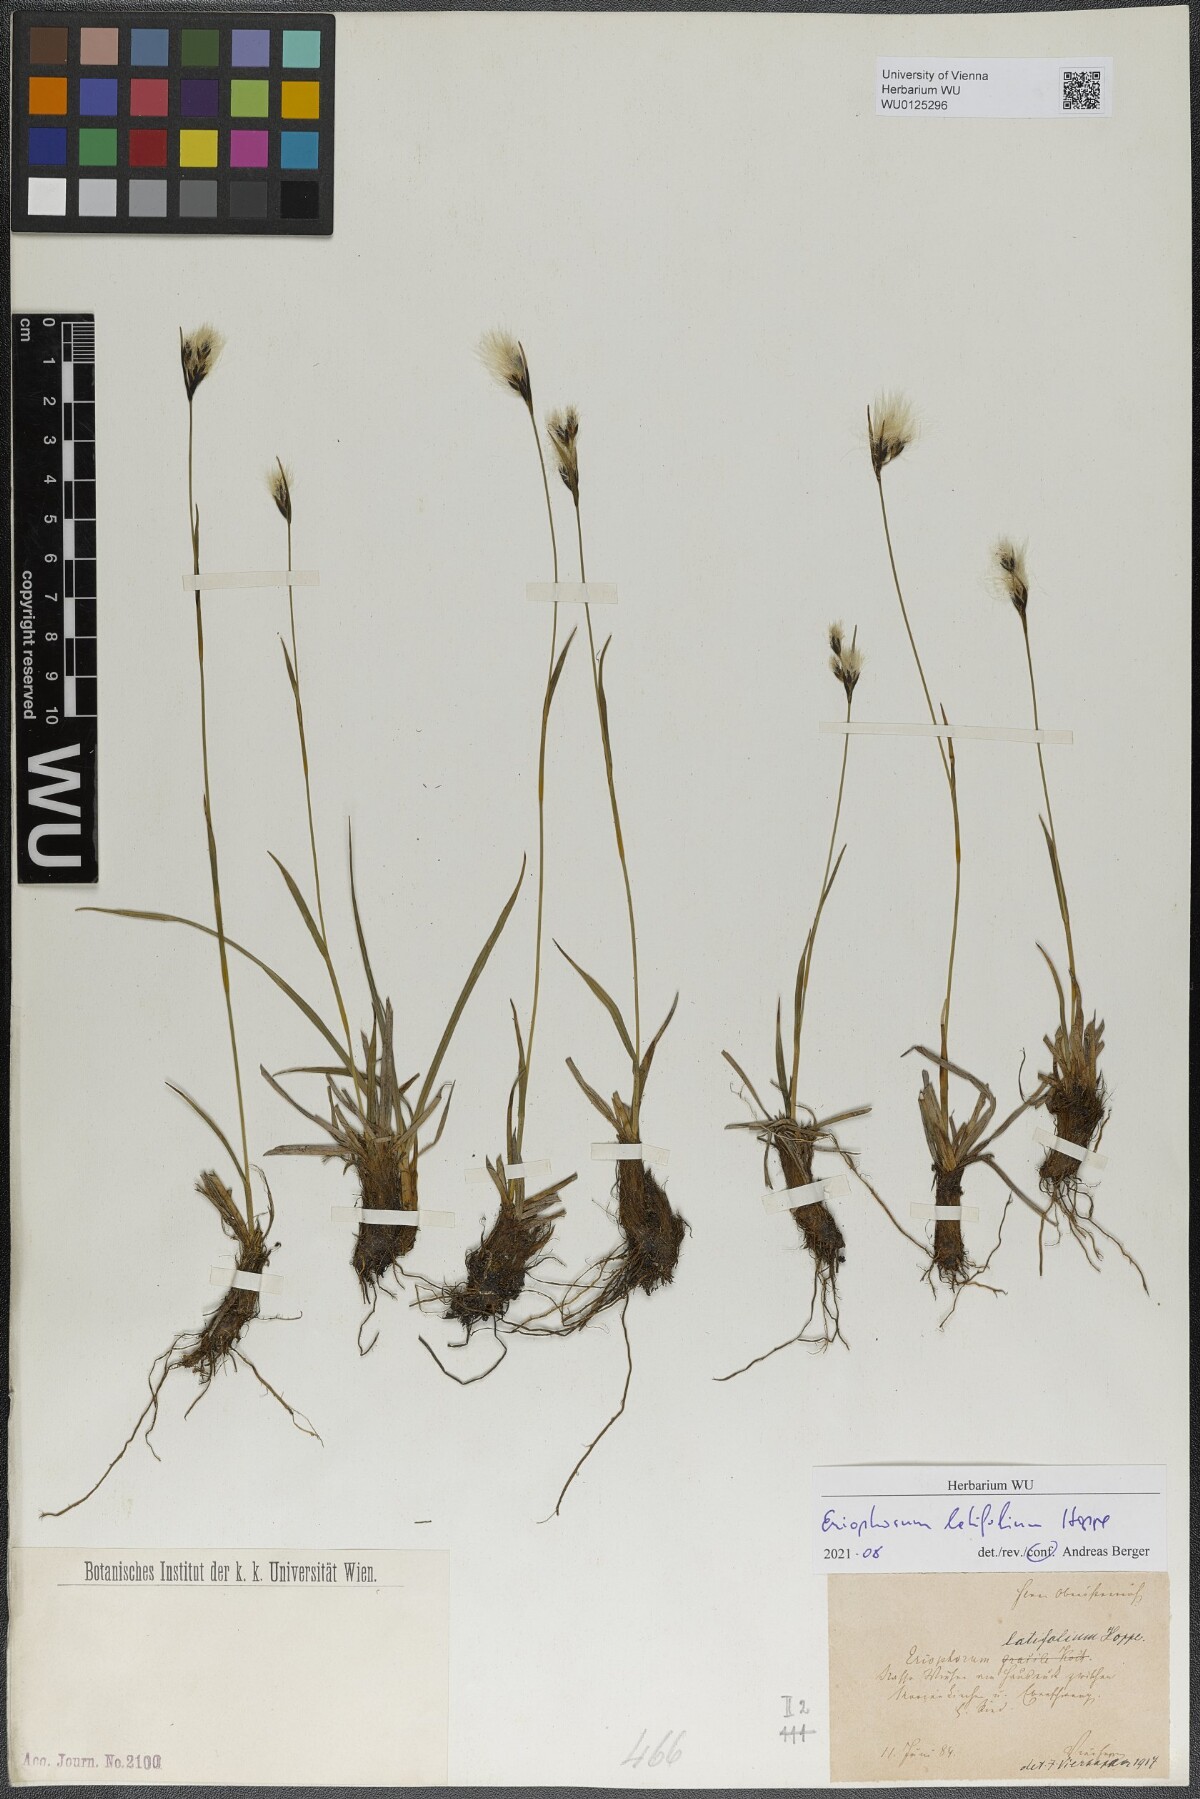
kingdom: Plantae
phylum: Tracheophyta
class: Liliopsida
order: Poales
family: Cyperaceae
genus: Eriophorum
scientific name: Eriophorum latifolium
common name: Broad-leaved cottongrass
